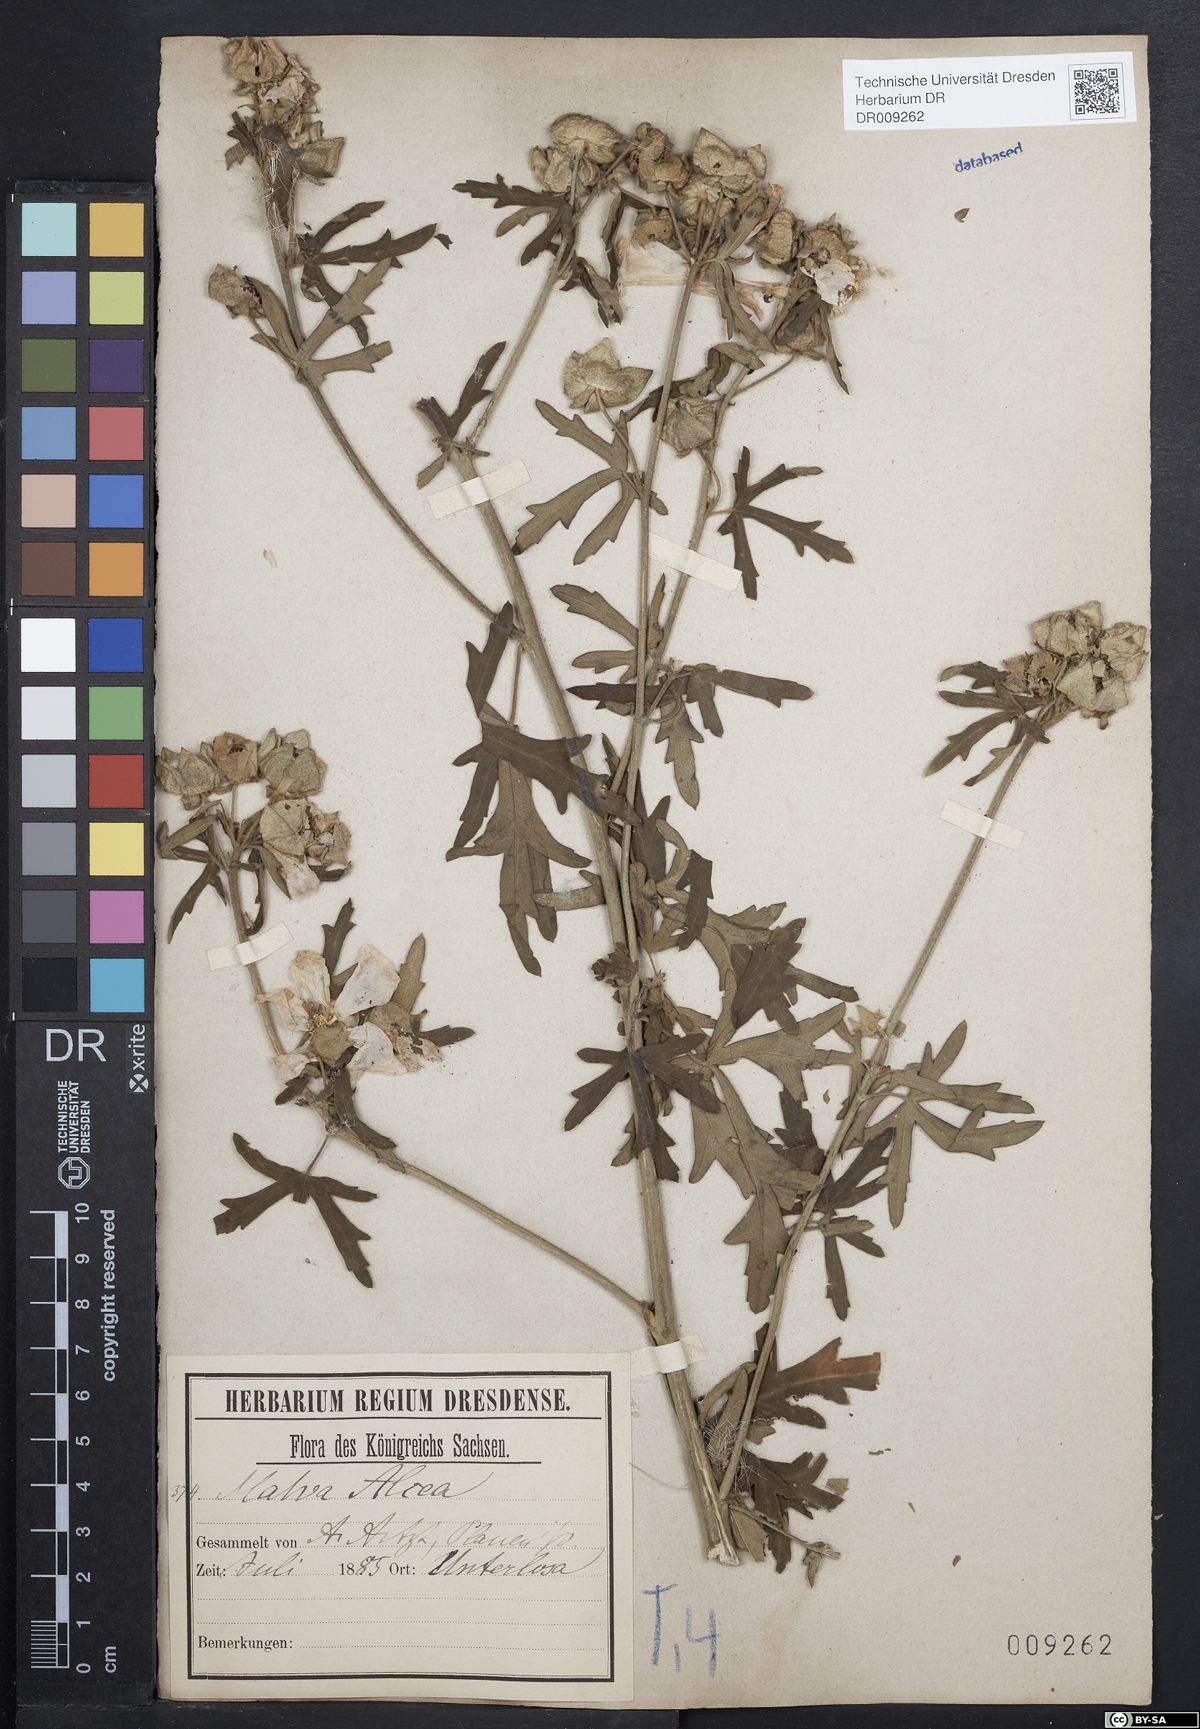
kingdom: Plantae
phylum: Tracheophyta
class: Magnoliopsida
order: Malvales
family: Malvaceae
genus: Malva
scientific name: Malva alcea
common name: Greater musk-mallow
